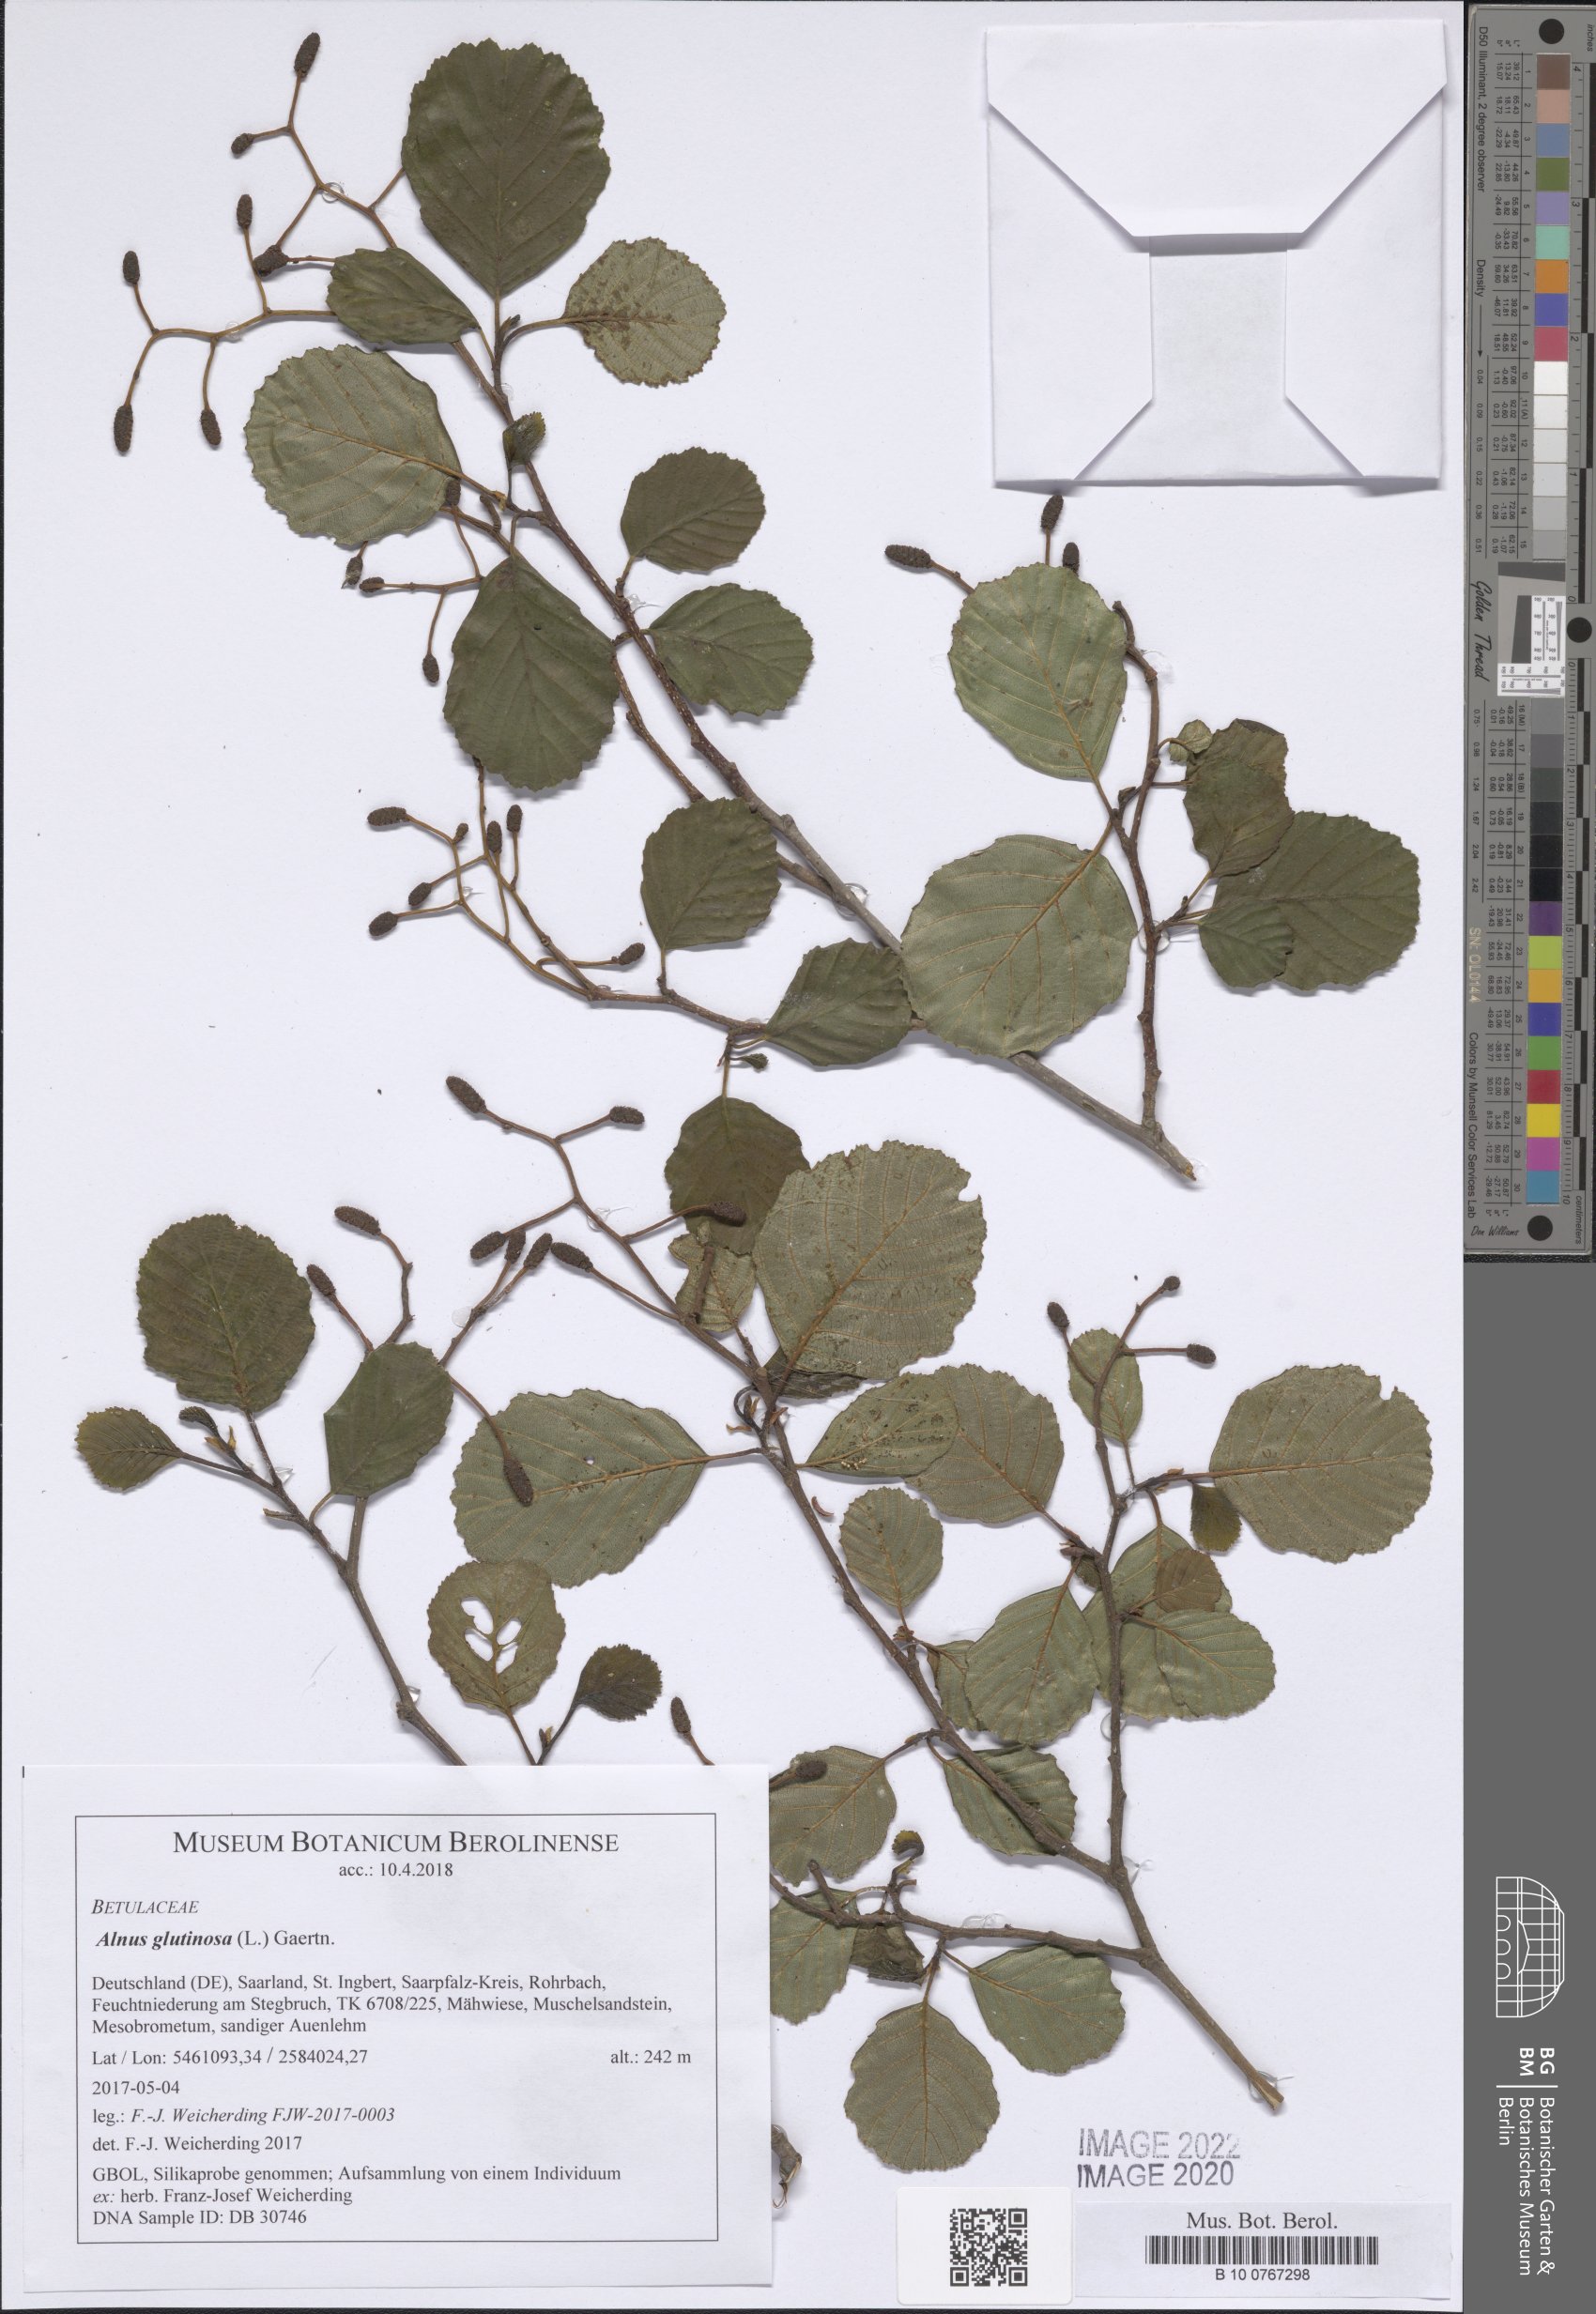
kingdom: Plantae
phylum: Tracheophyta
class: Magnoliopsida
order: Fagales
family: Betulaceae
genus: Alnus
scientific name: Alnus glutinosa
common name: Black alder
